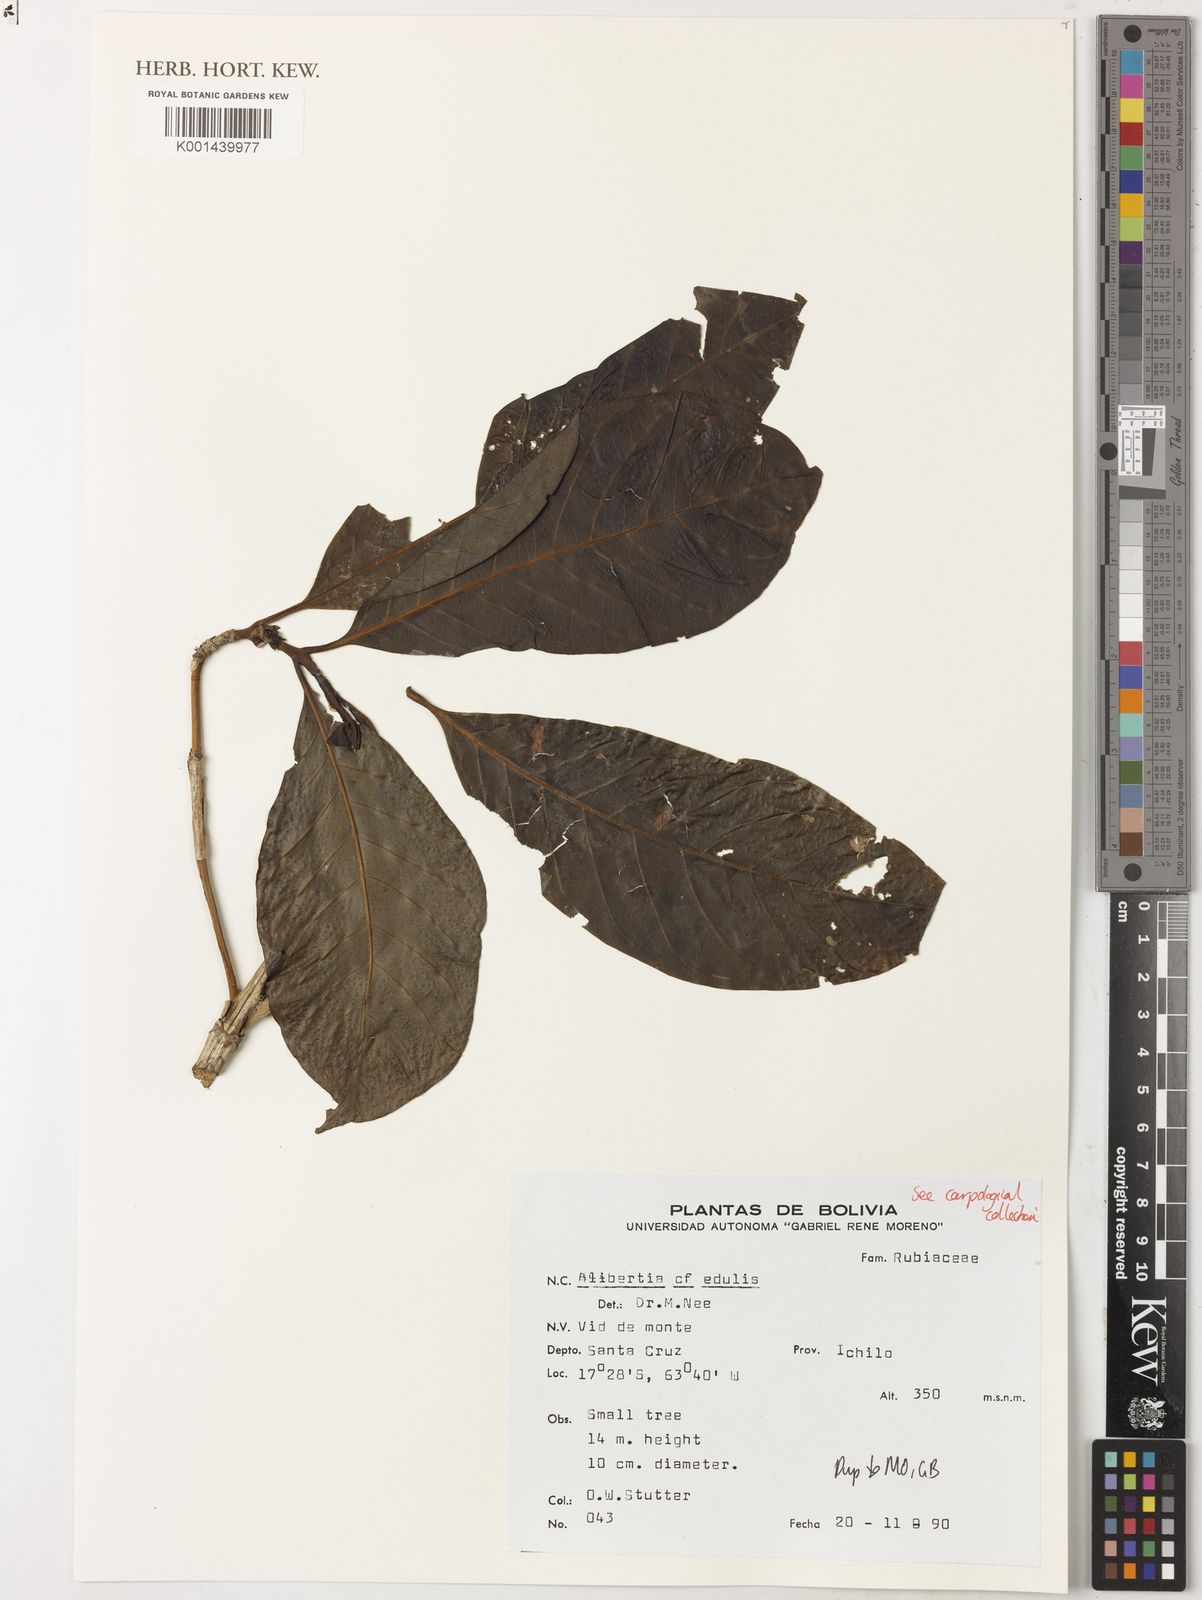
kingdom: Plantae
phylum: Tracheophyta
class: Magnoliopsida
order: Gentianales
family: Rubiaceae
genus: Alibertia
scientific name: Alibertia edulis
